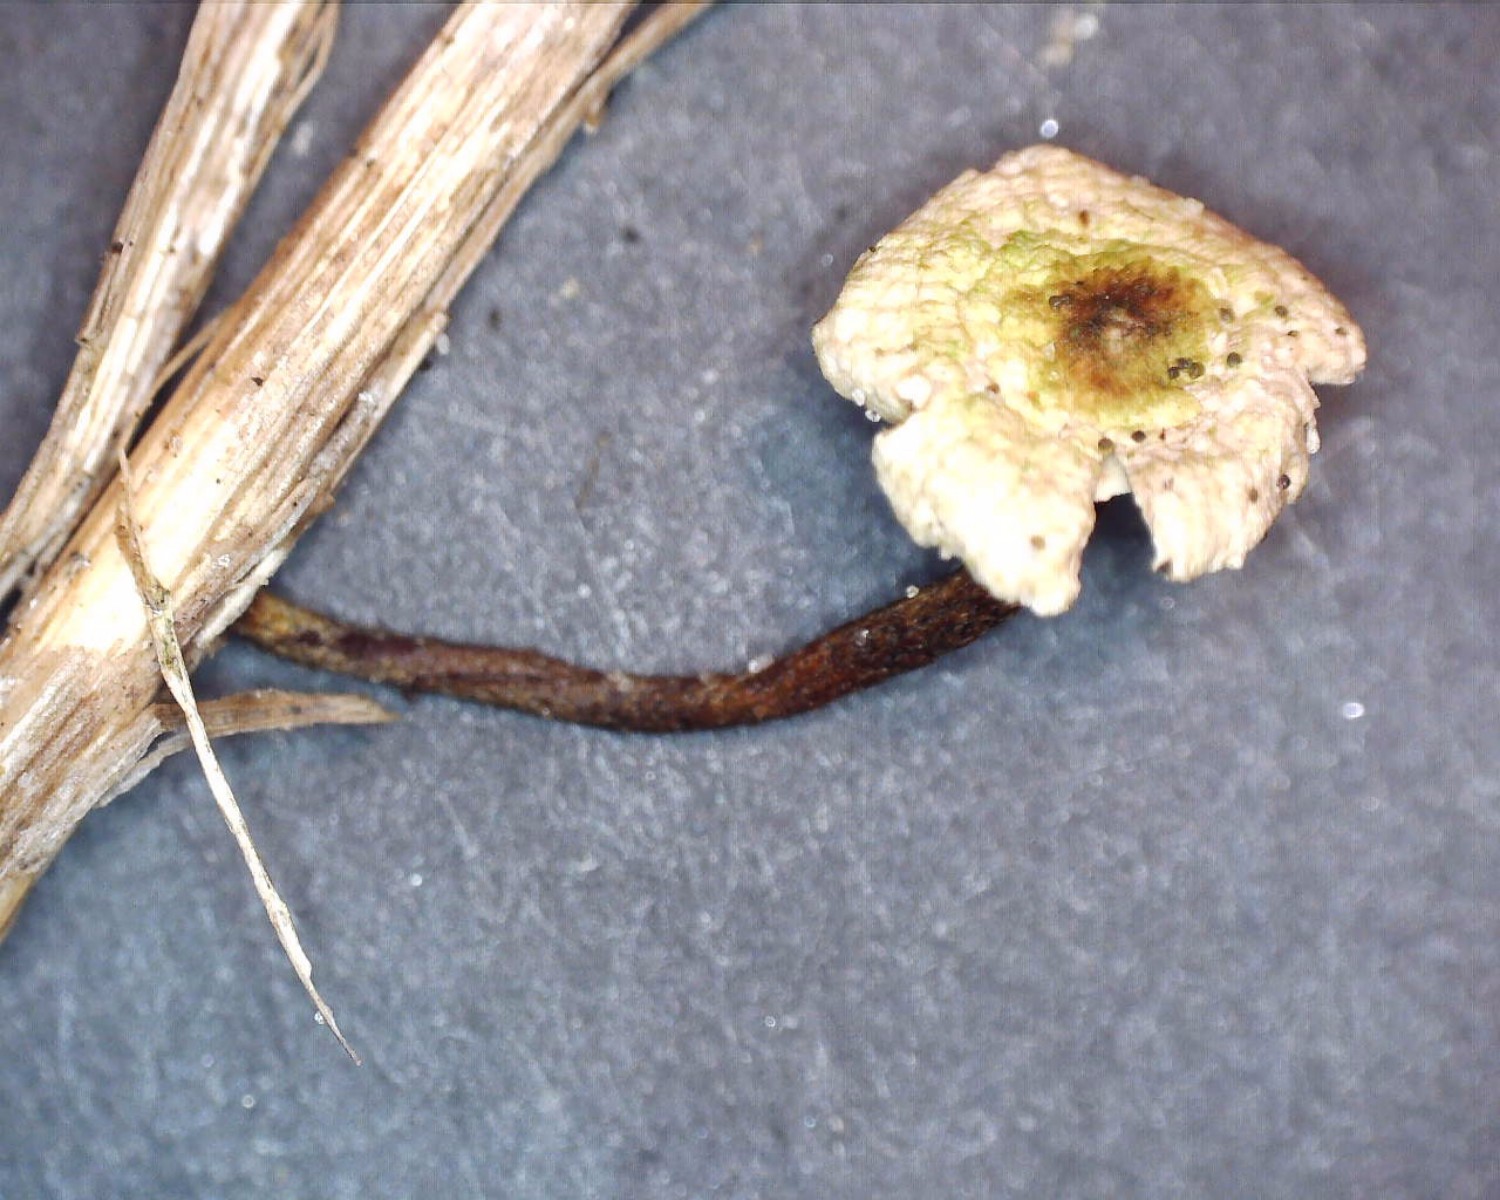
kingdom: Fungi
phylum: Basidiomycota
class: Agaricomycetes
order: Agaricales
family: Marasmiaceae
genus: Crinipellis
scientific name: Crinipellis scabella
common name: børstefod
